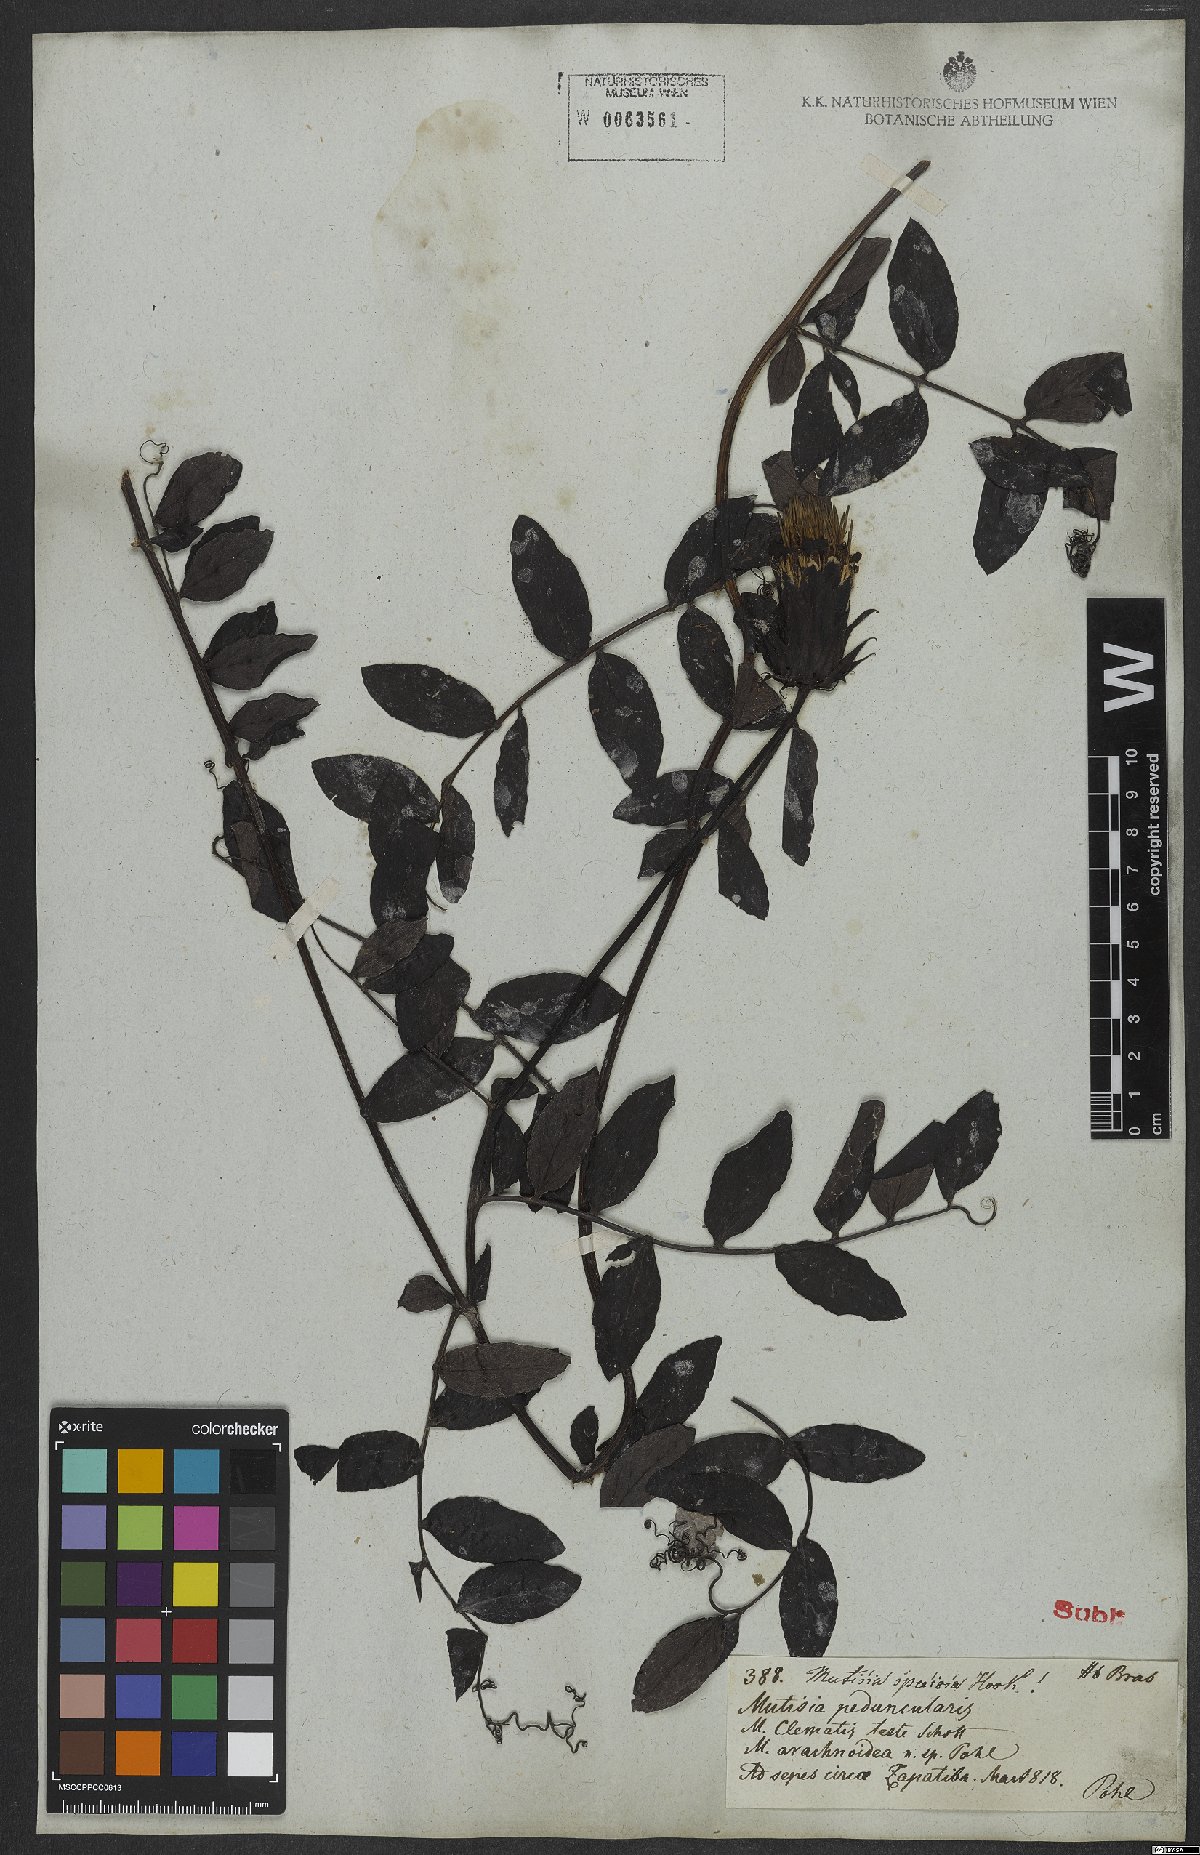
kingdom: Plantae
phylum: Tracheophyta
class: Magnoliopsida
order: Asterales
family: Asteraceae
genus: Mutisia
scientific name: Mutisia speciosa
